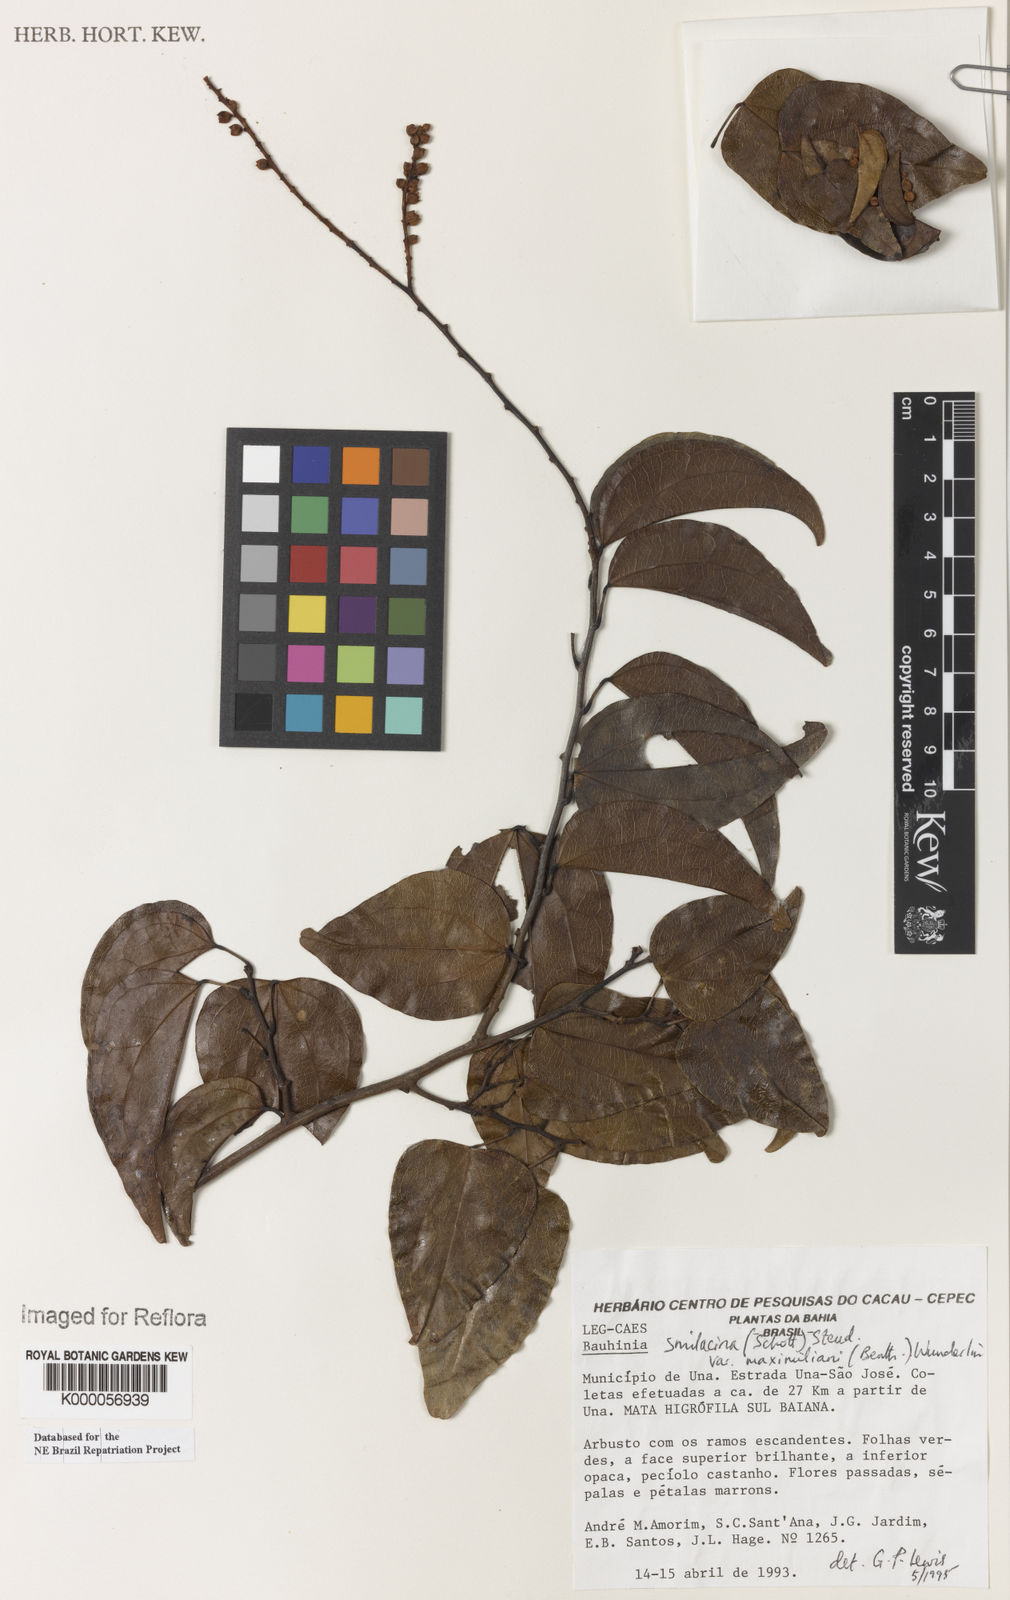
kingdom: Plantae
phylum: Tracheophyta
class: Magnoliopsida
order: Fabales
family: Fabaceae
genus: Schnella
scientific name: Schnella smilacina
